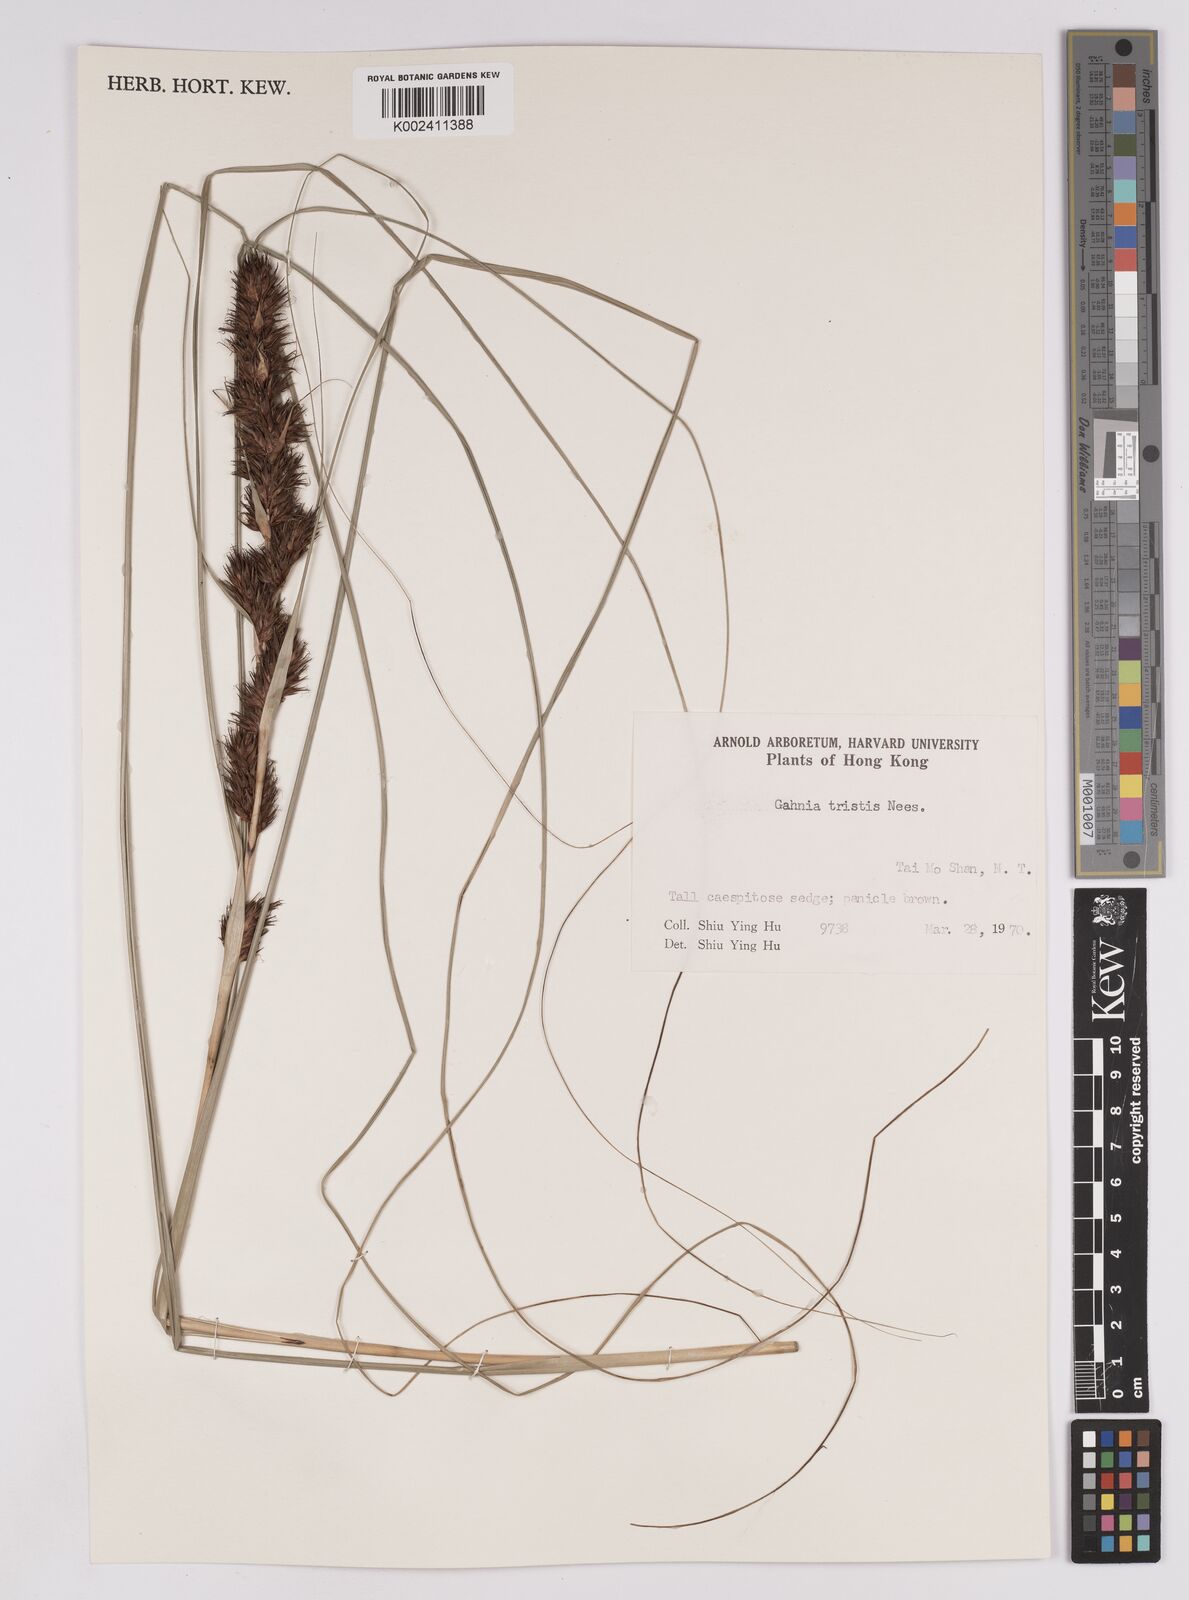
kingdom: Plantae
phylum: Tracheophyta
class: Liliopsida
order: Poales
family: Cyperaceae
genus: Gahnia
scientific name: Gahnia tristis
